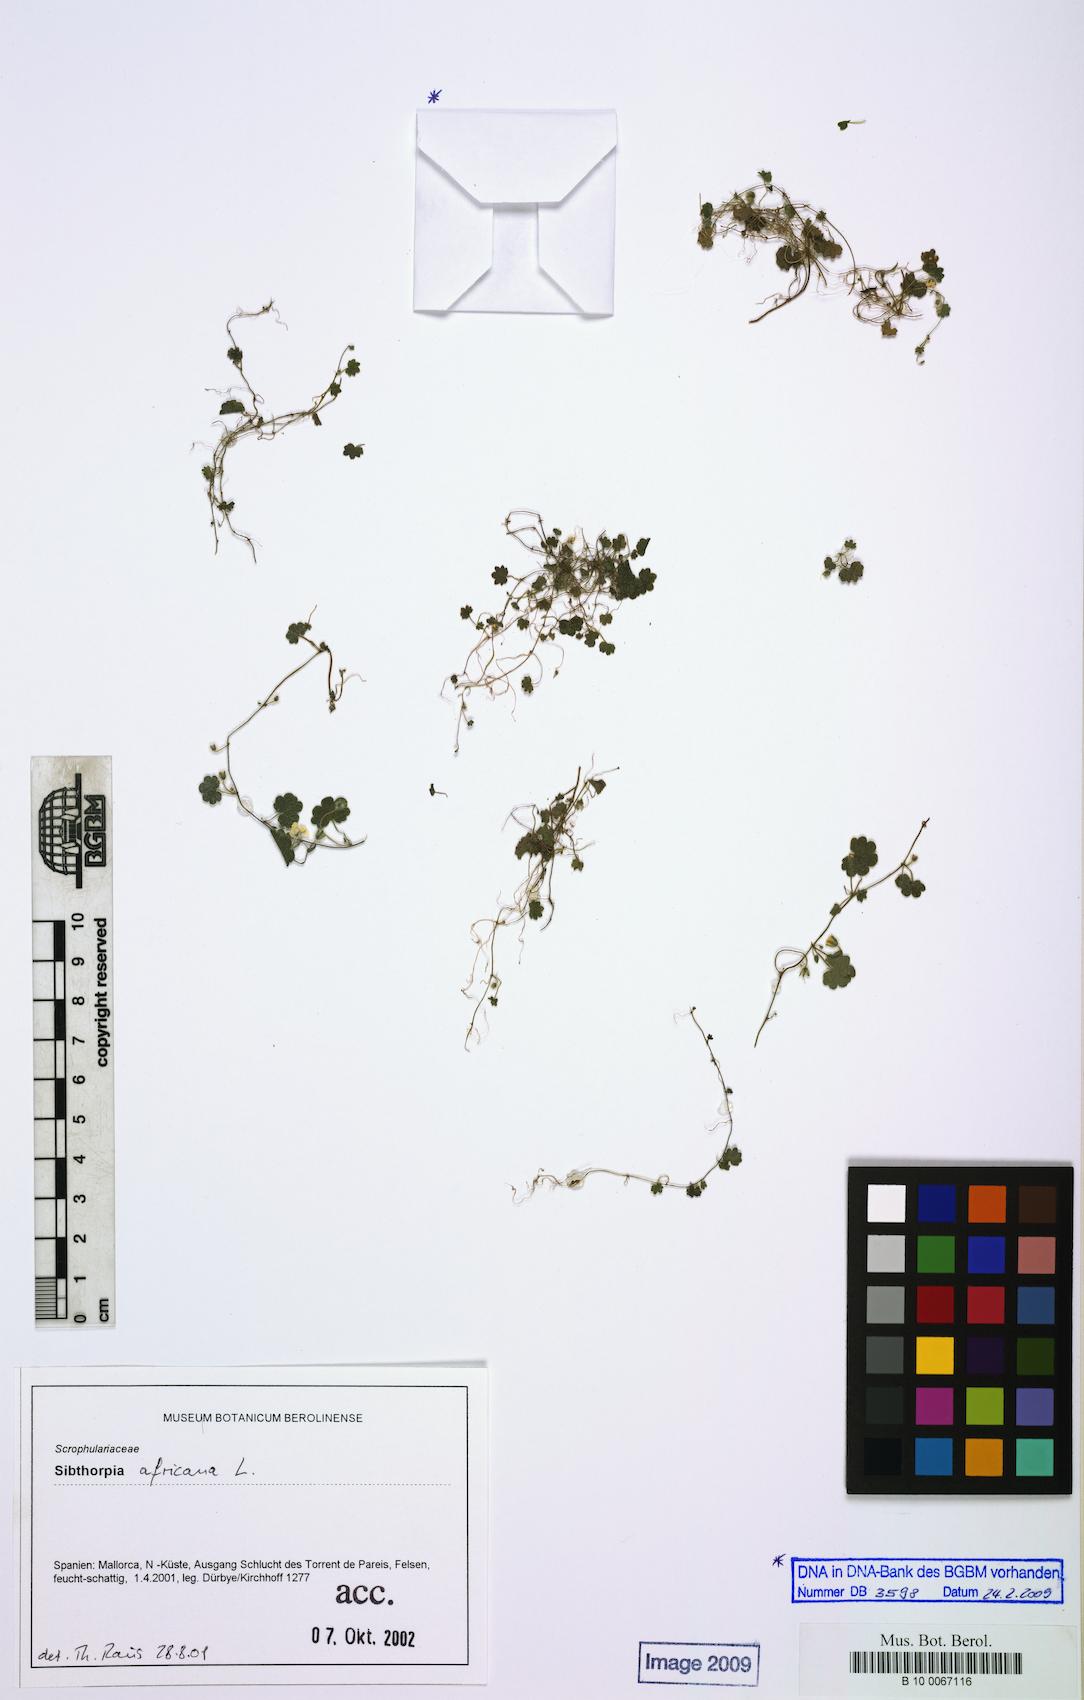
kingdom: Plantae
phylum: Tracheophyta
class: Magnoliopsida
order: Lamiales
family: Plantaginaceae
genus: Sibthorpia
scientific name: Sibthorpia africana
